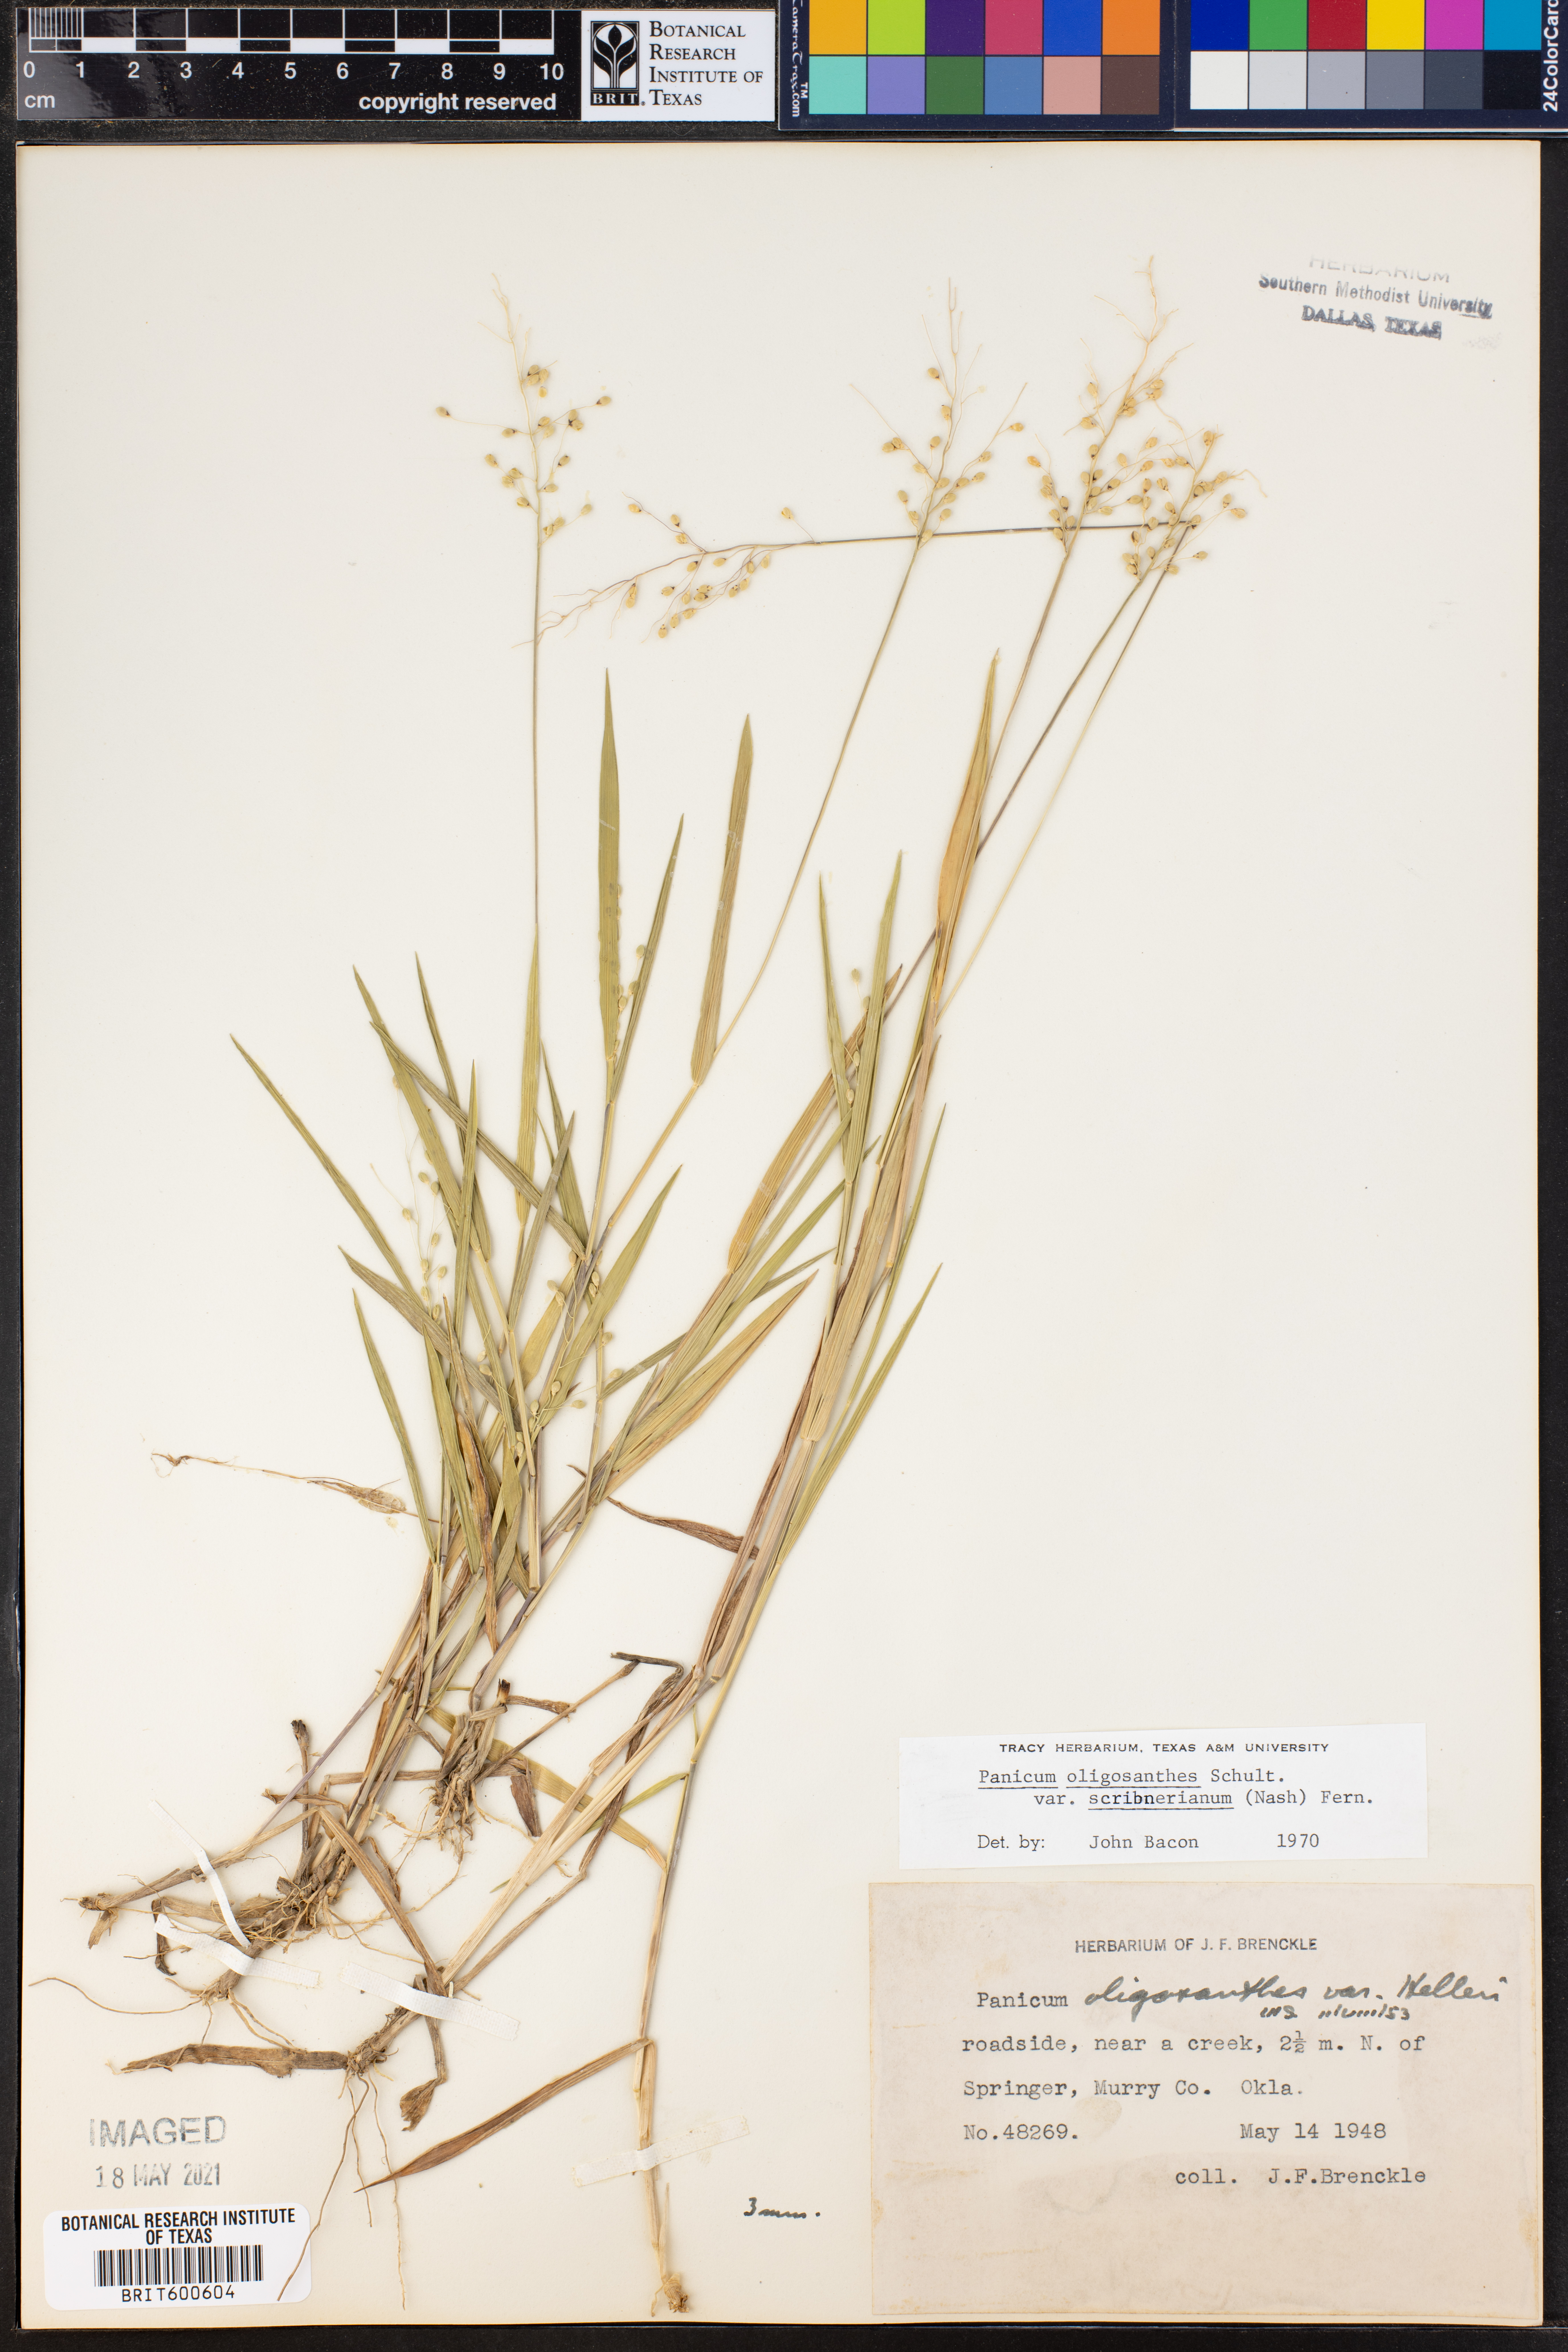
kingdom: Plantae
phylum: Tracheophyta
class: Liliopsida
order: Poales
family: Poaceae
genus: Dichanthelium
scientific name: Dichanthelium scribnerianum
